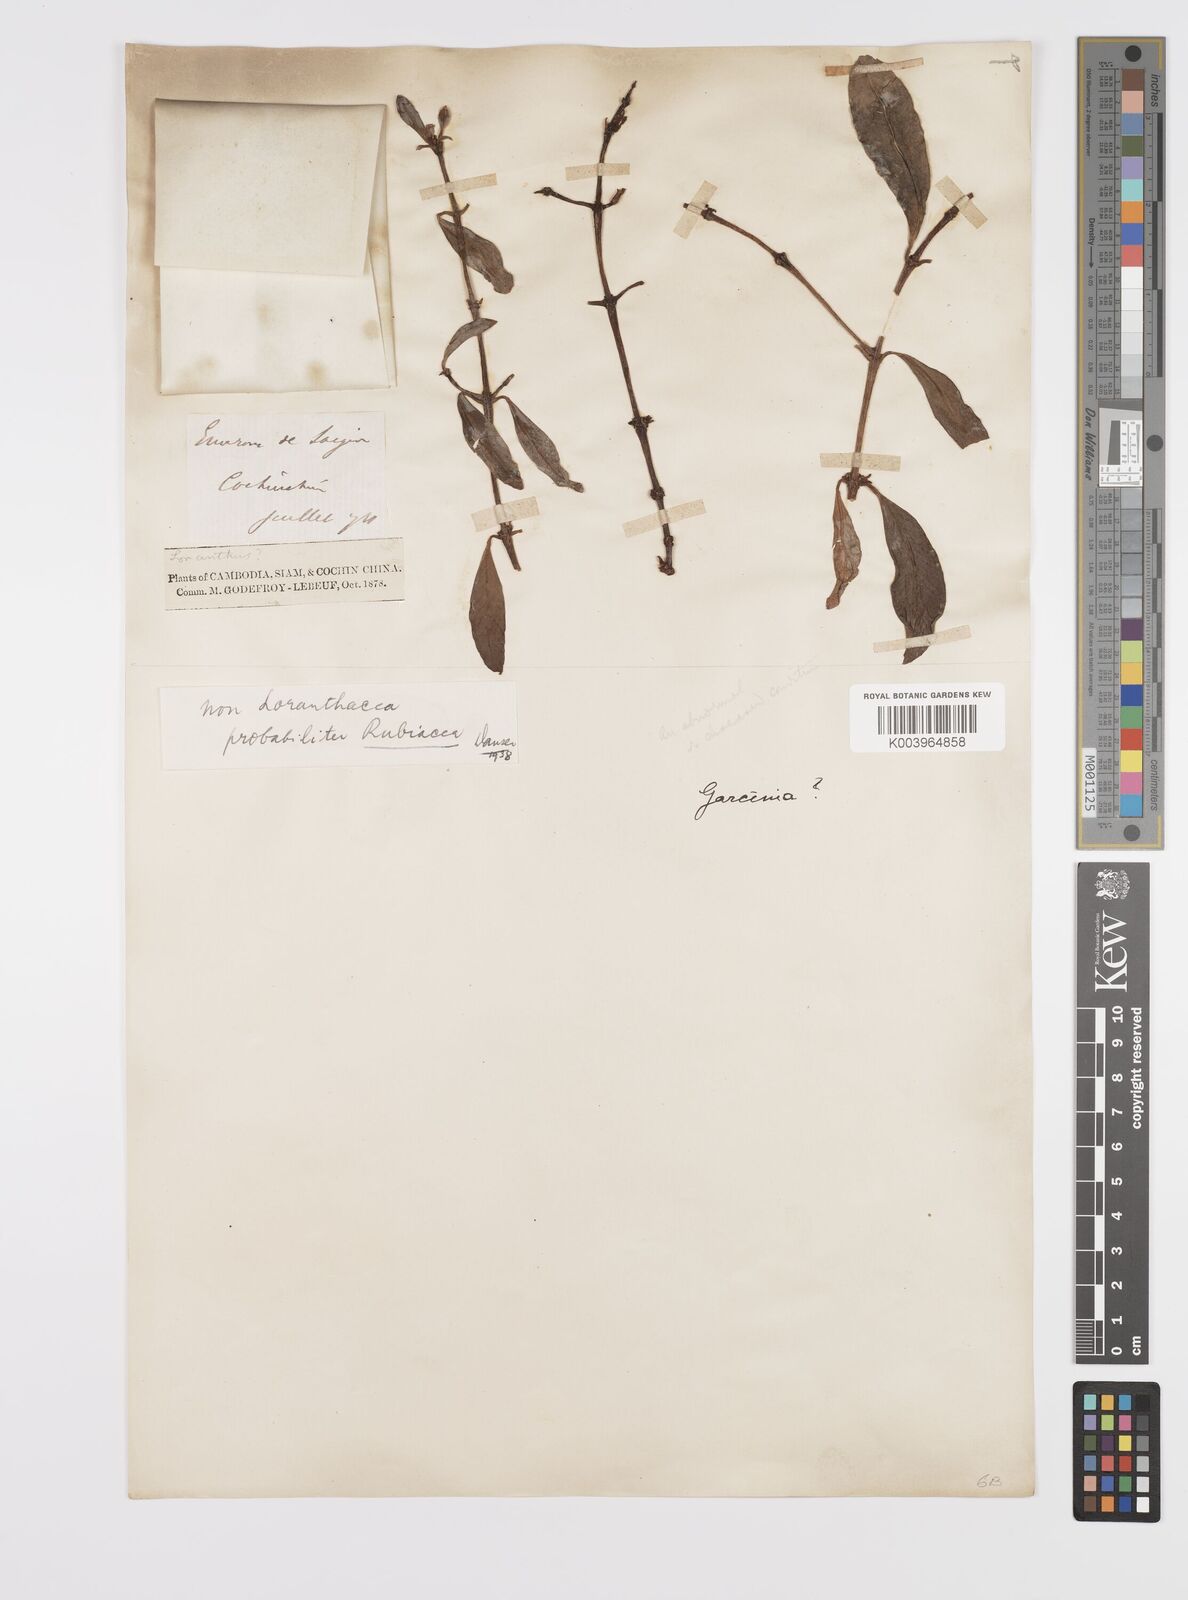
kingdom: Plantae
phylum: Tracheophyta
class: Magnoliopsida
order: Malpighiales
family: Clusiaceae
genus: Garcinia
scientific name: Garcinia
